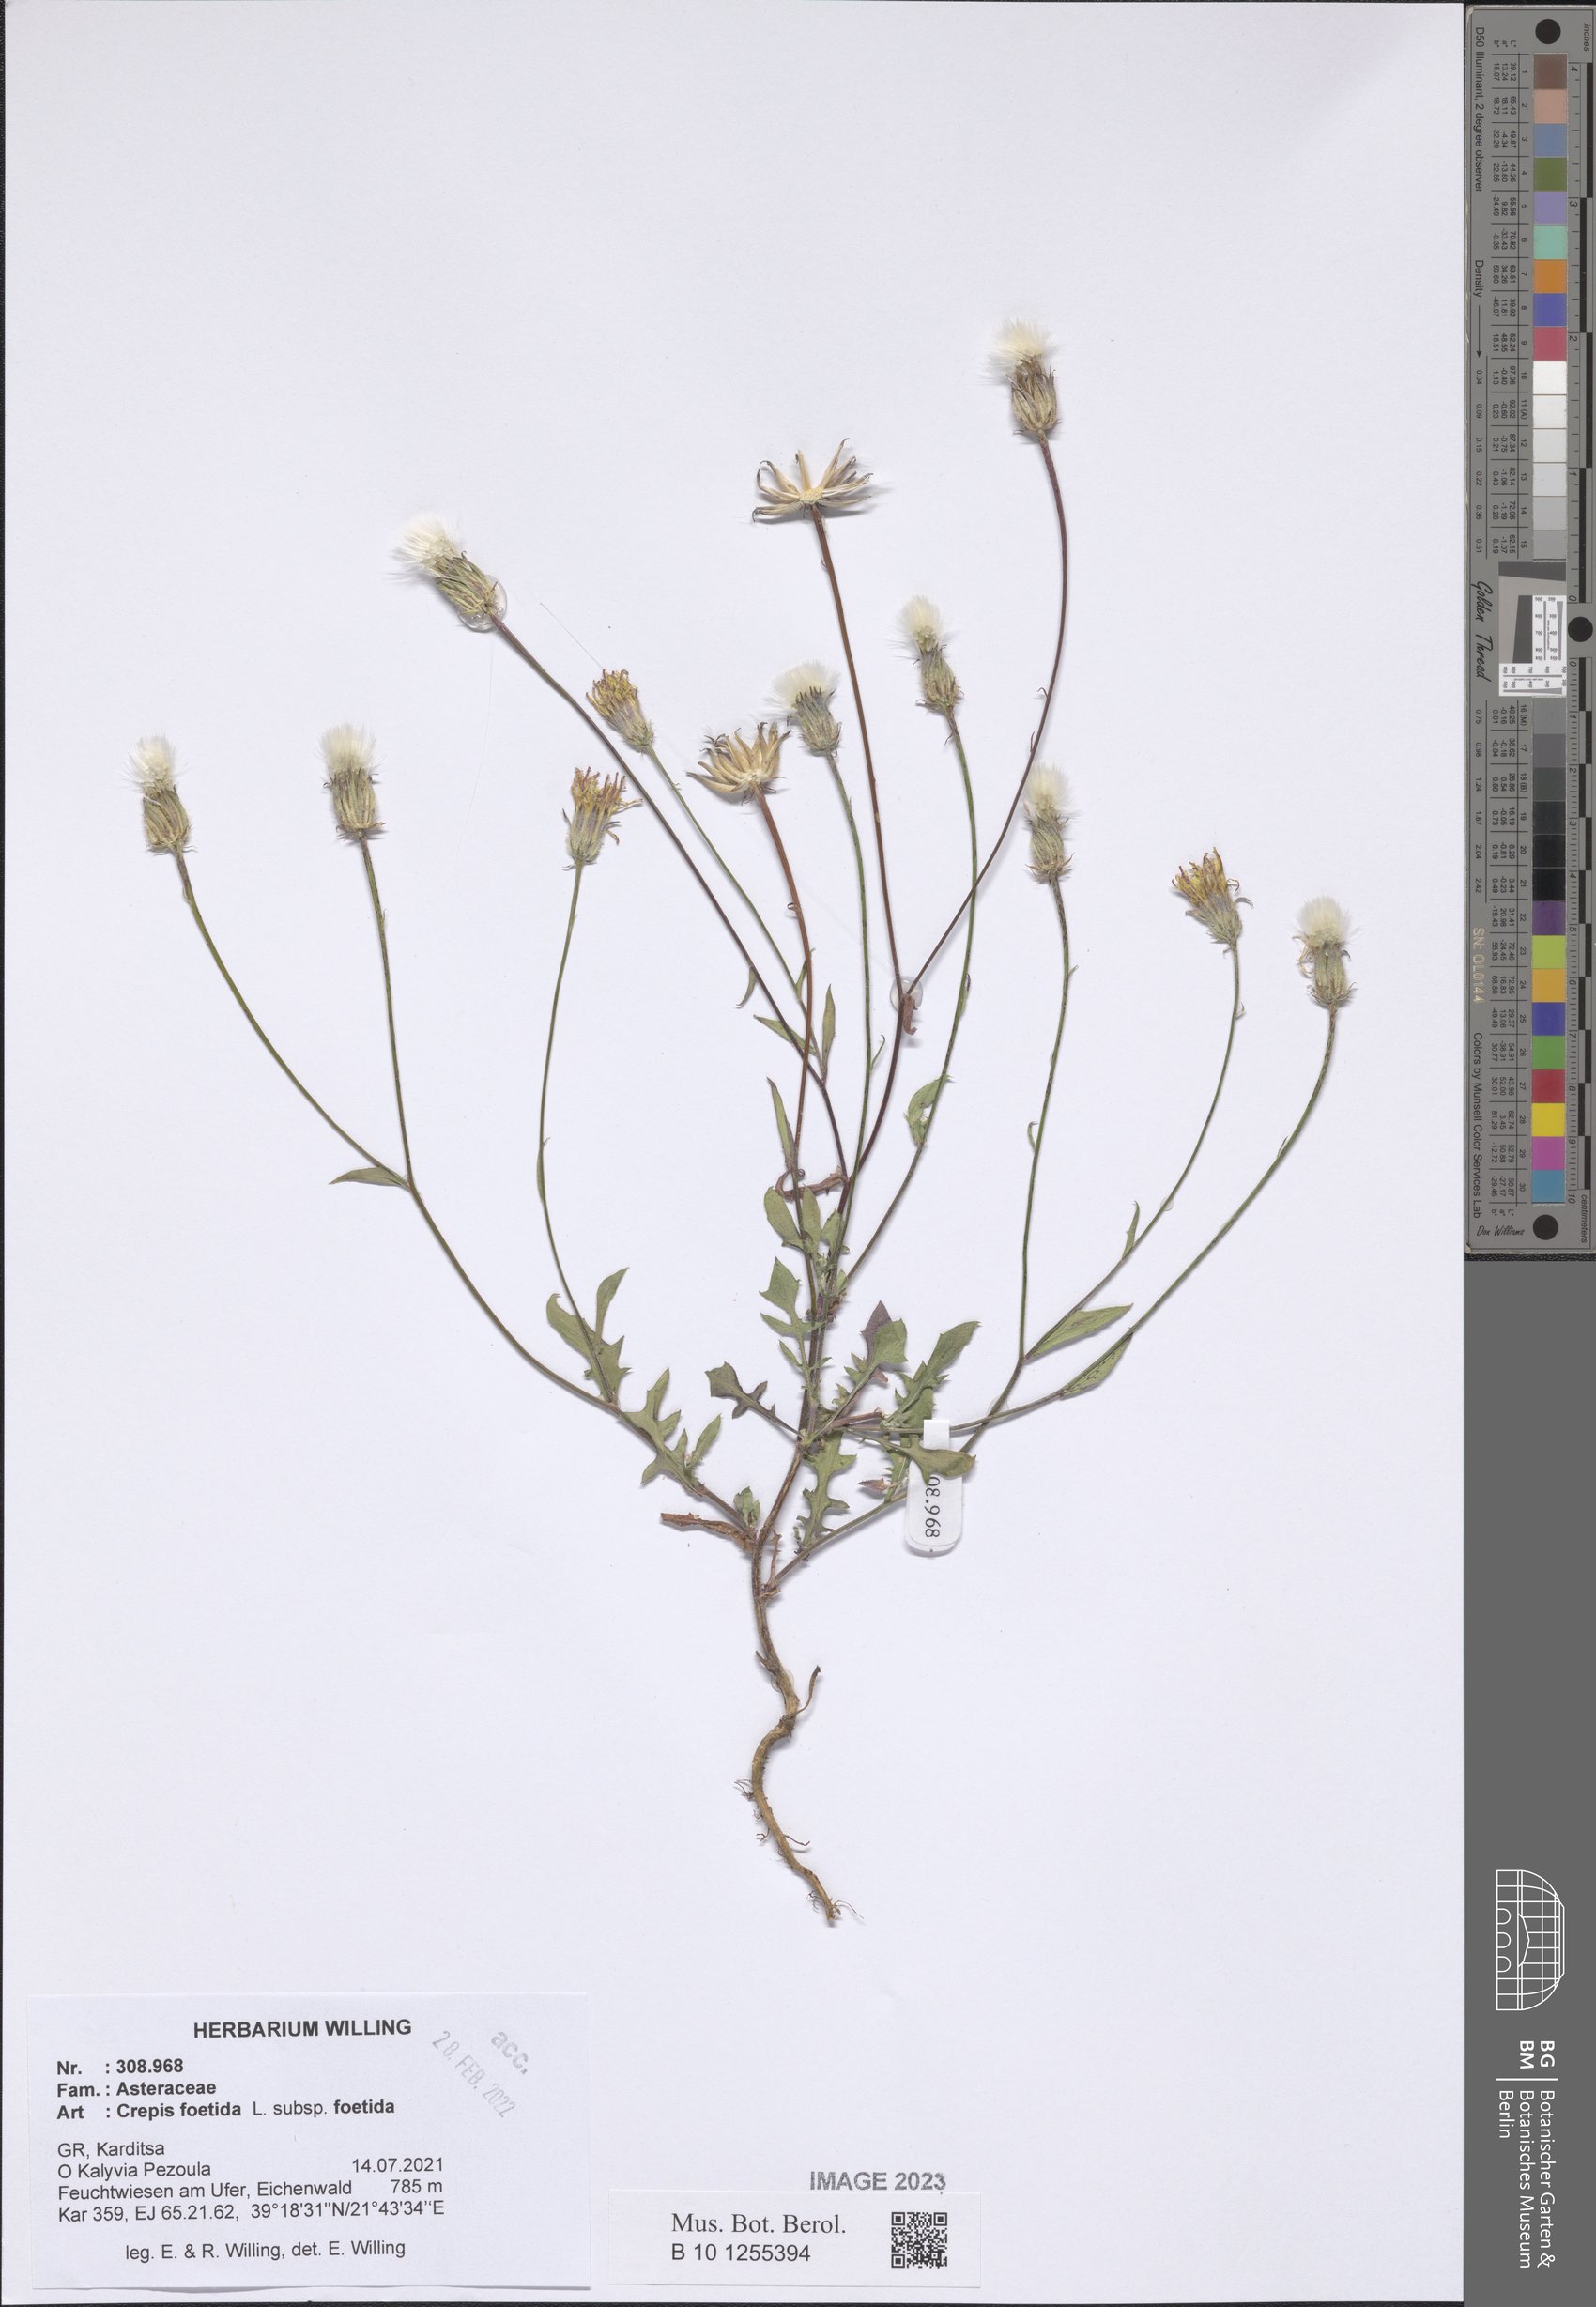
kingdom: Plantae
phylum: Tracheophyta
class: Magnoliopsida
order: Asterales
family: Asteraceae
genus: Crepis
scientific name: Crepis foetida
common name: Stinking hawk's-beard
